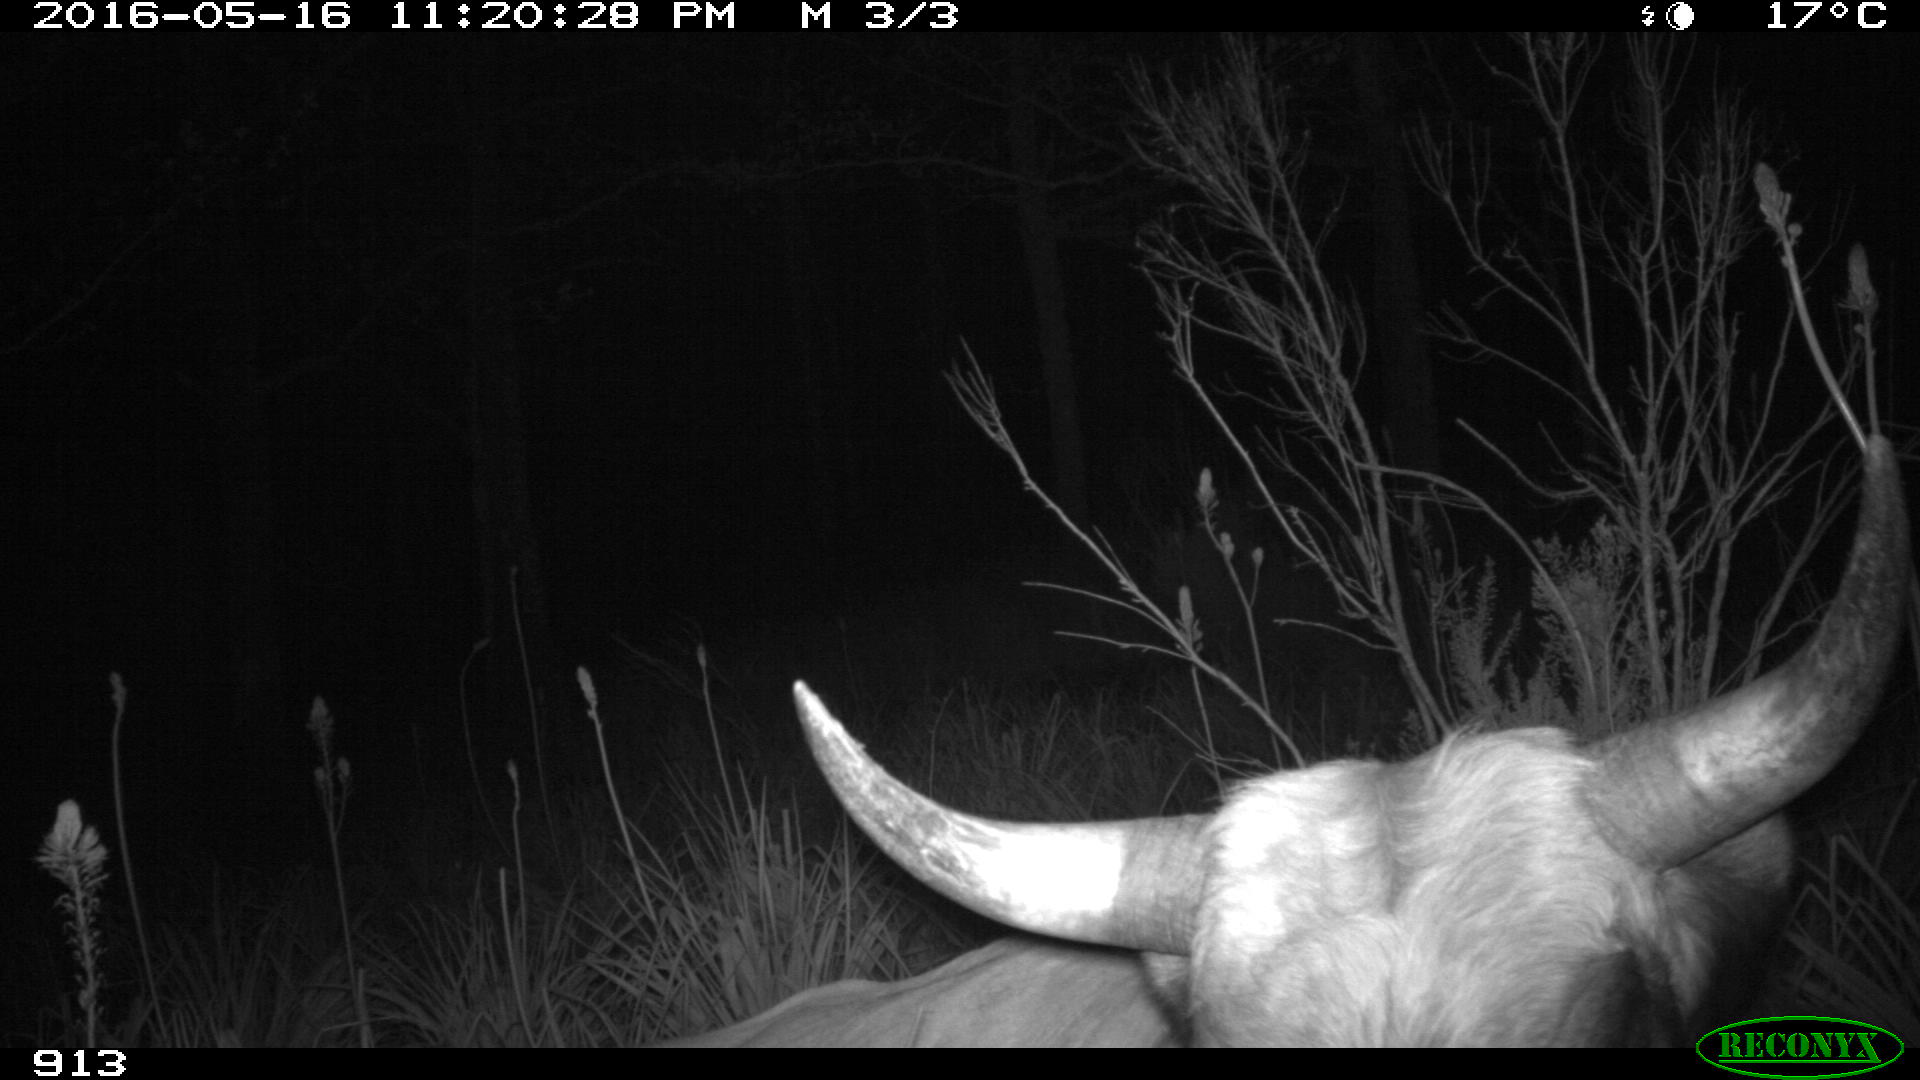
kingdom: Animalia
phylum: Chordata
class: Mammalia
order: Artiodactyla
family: Bovidae
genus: Bos
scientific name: Bos taurus
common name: Domesticated cattle
